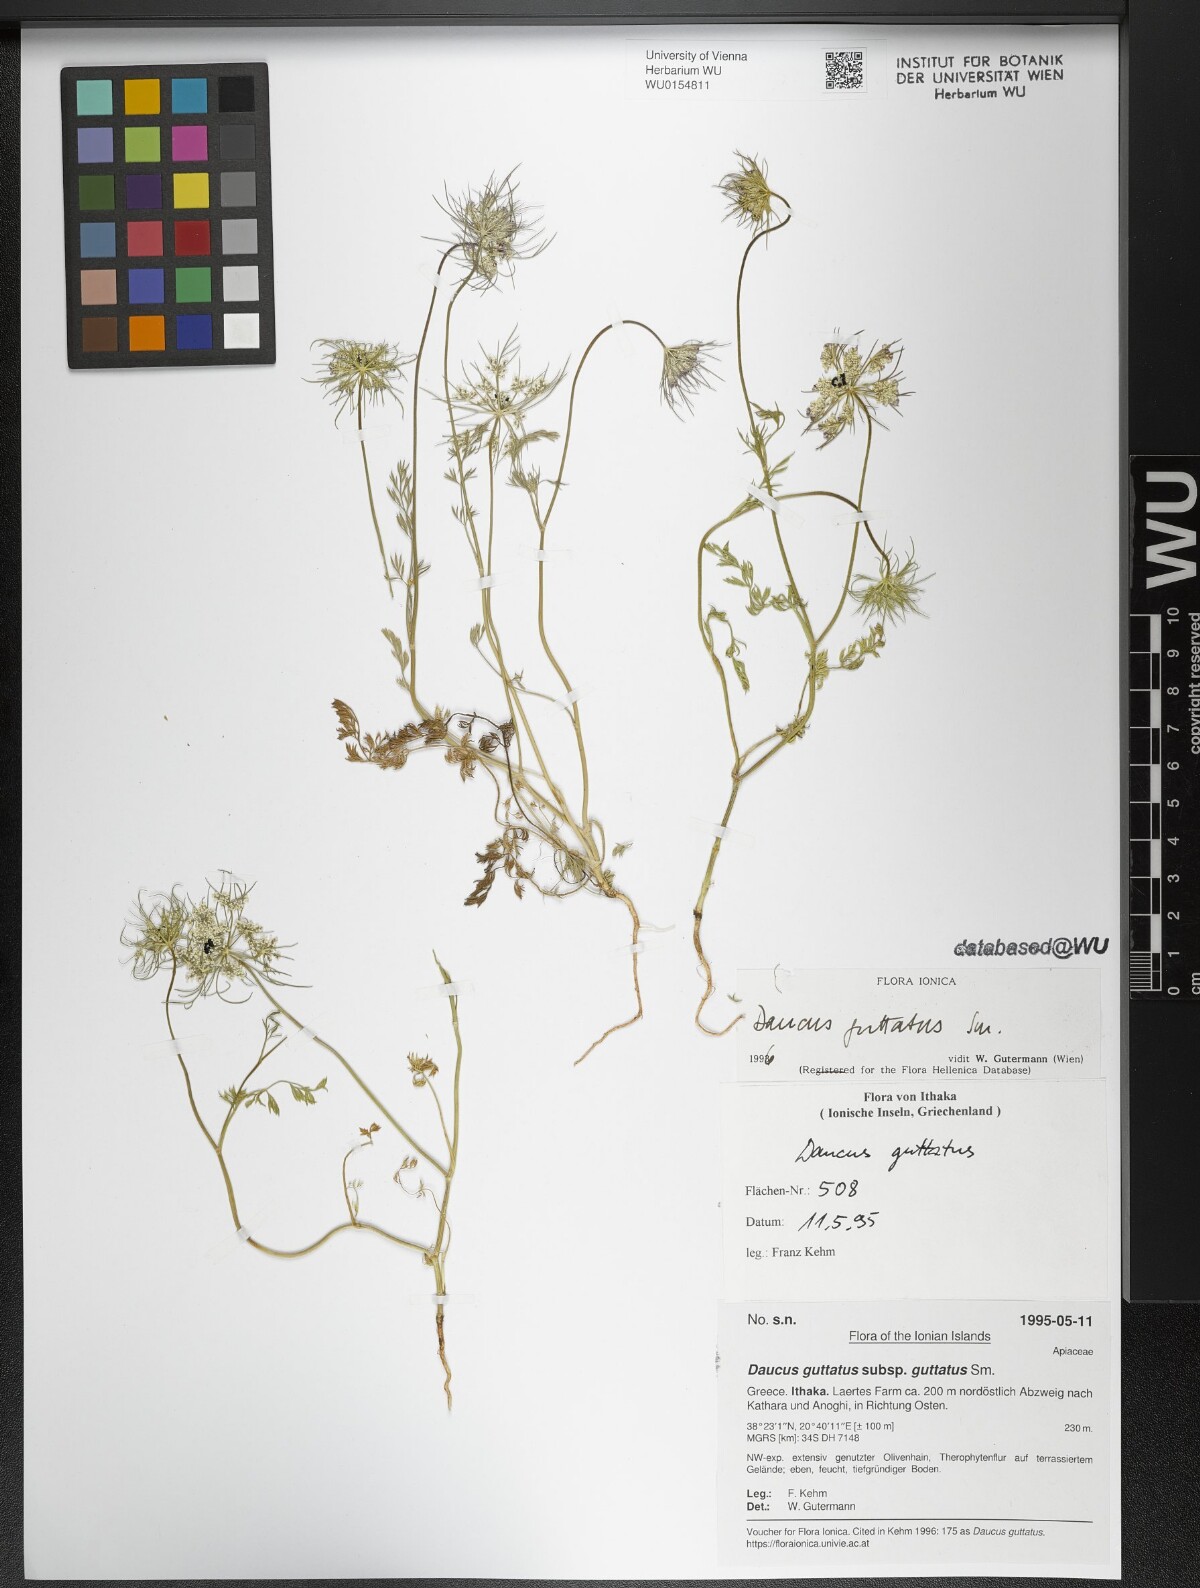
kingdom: Plantae
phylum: Tracheophyta
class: Magnoliopsida
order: Apiales
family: Apiaceae
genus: Daucus
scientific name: Daucus guttatus
